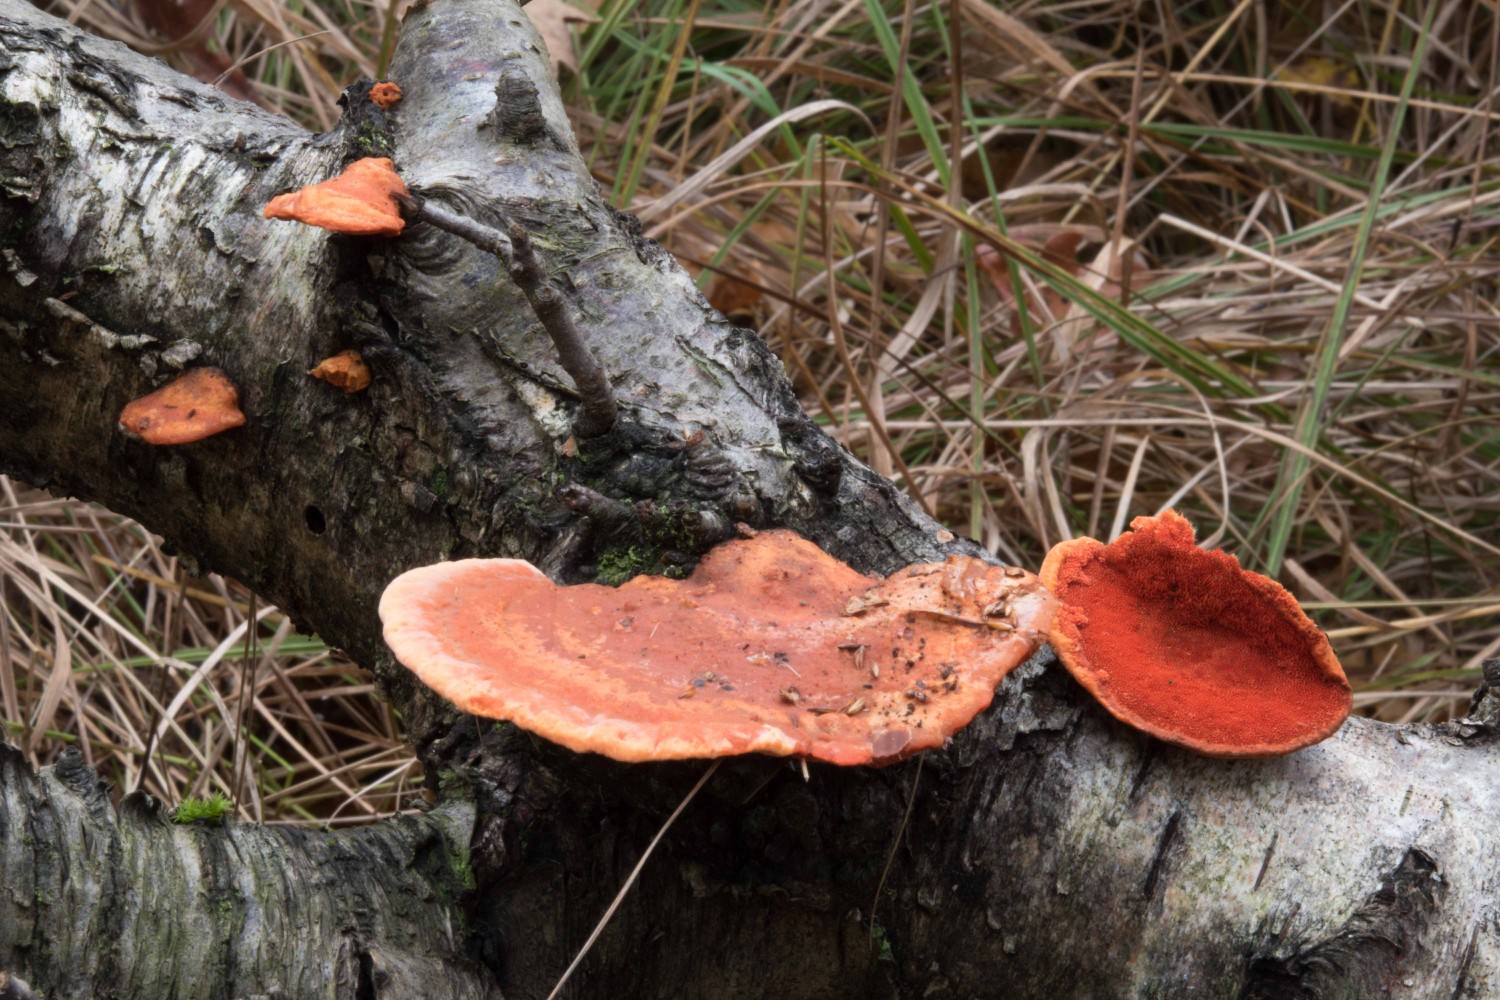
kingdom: Fungi
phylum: Basidiomycota
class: Agaricomycetes
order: Polyporales
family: Polyporaceae
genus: Trametes
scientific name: Trametes cinnabarina
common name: cinnoberporesvamp
